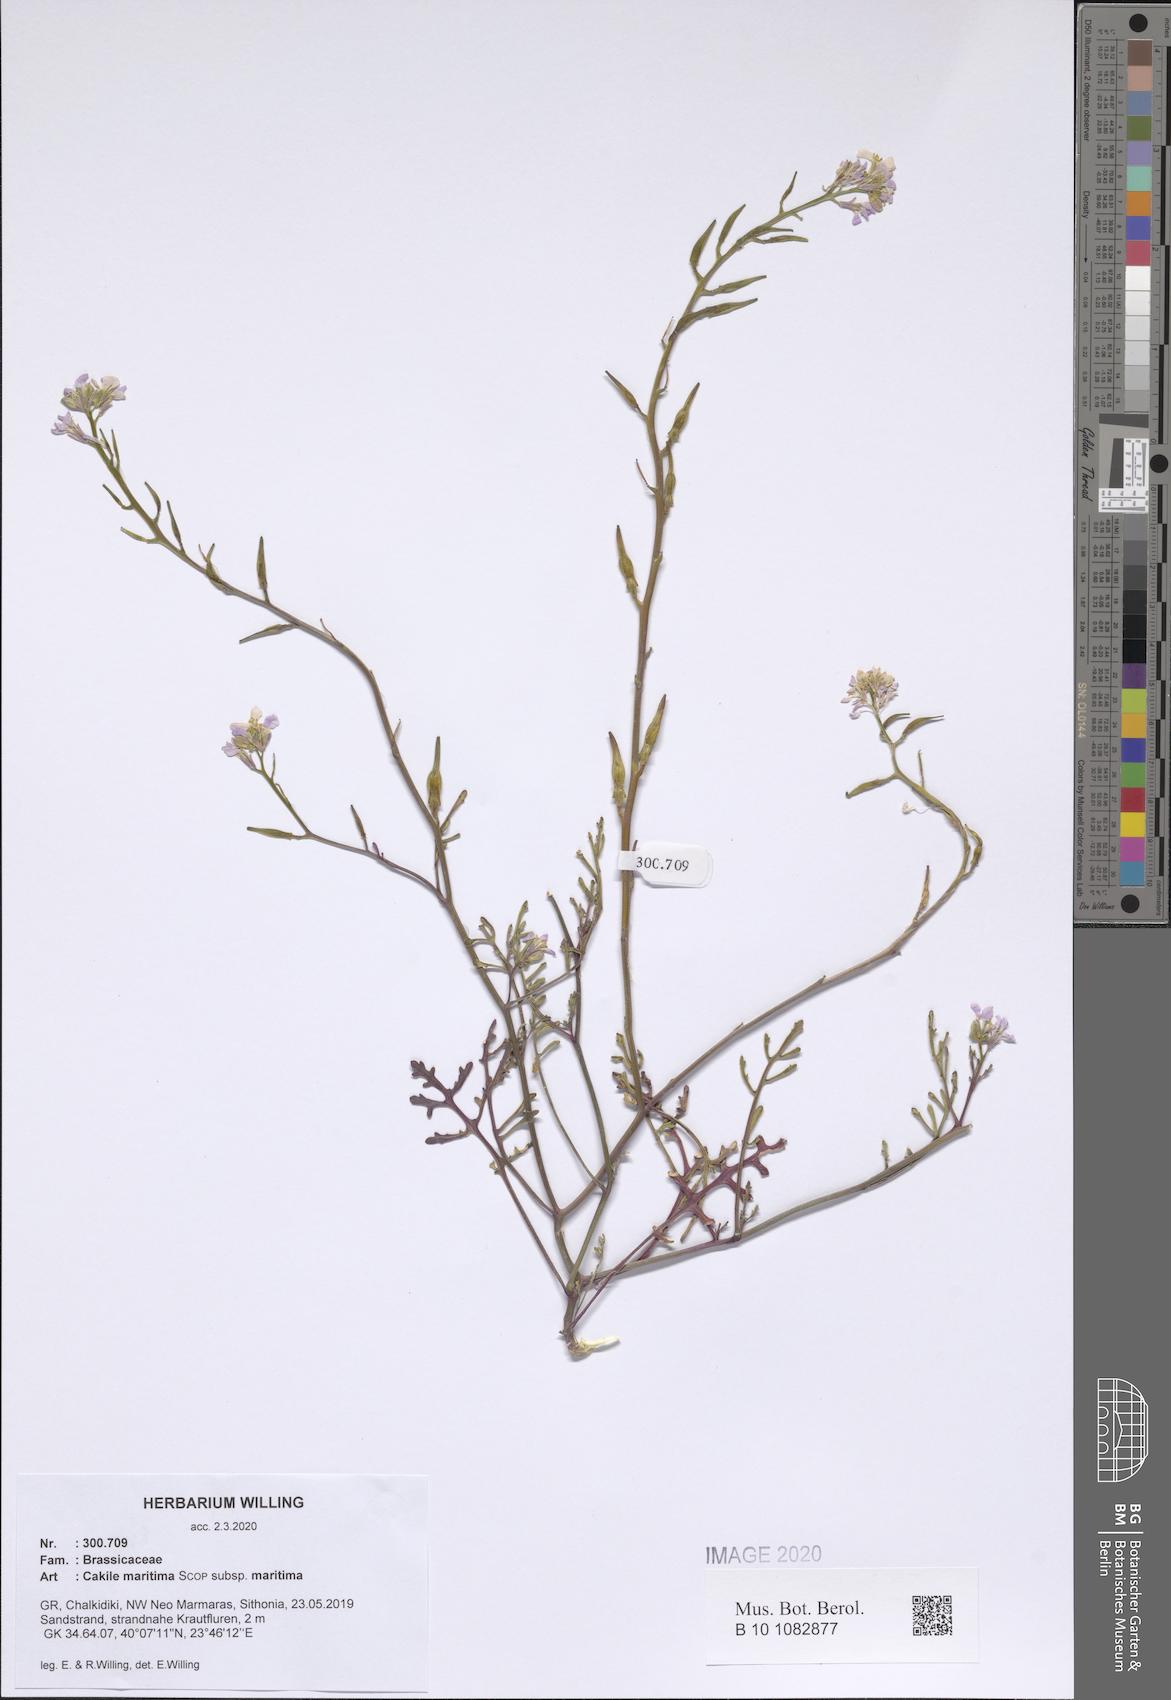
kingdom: Plantae
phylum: Tracheophyta
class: Magnoliopsida
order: Brassicales
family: Brassicaceae
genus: Cakile
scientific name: Cakile maritima
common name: Sea rocket
